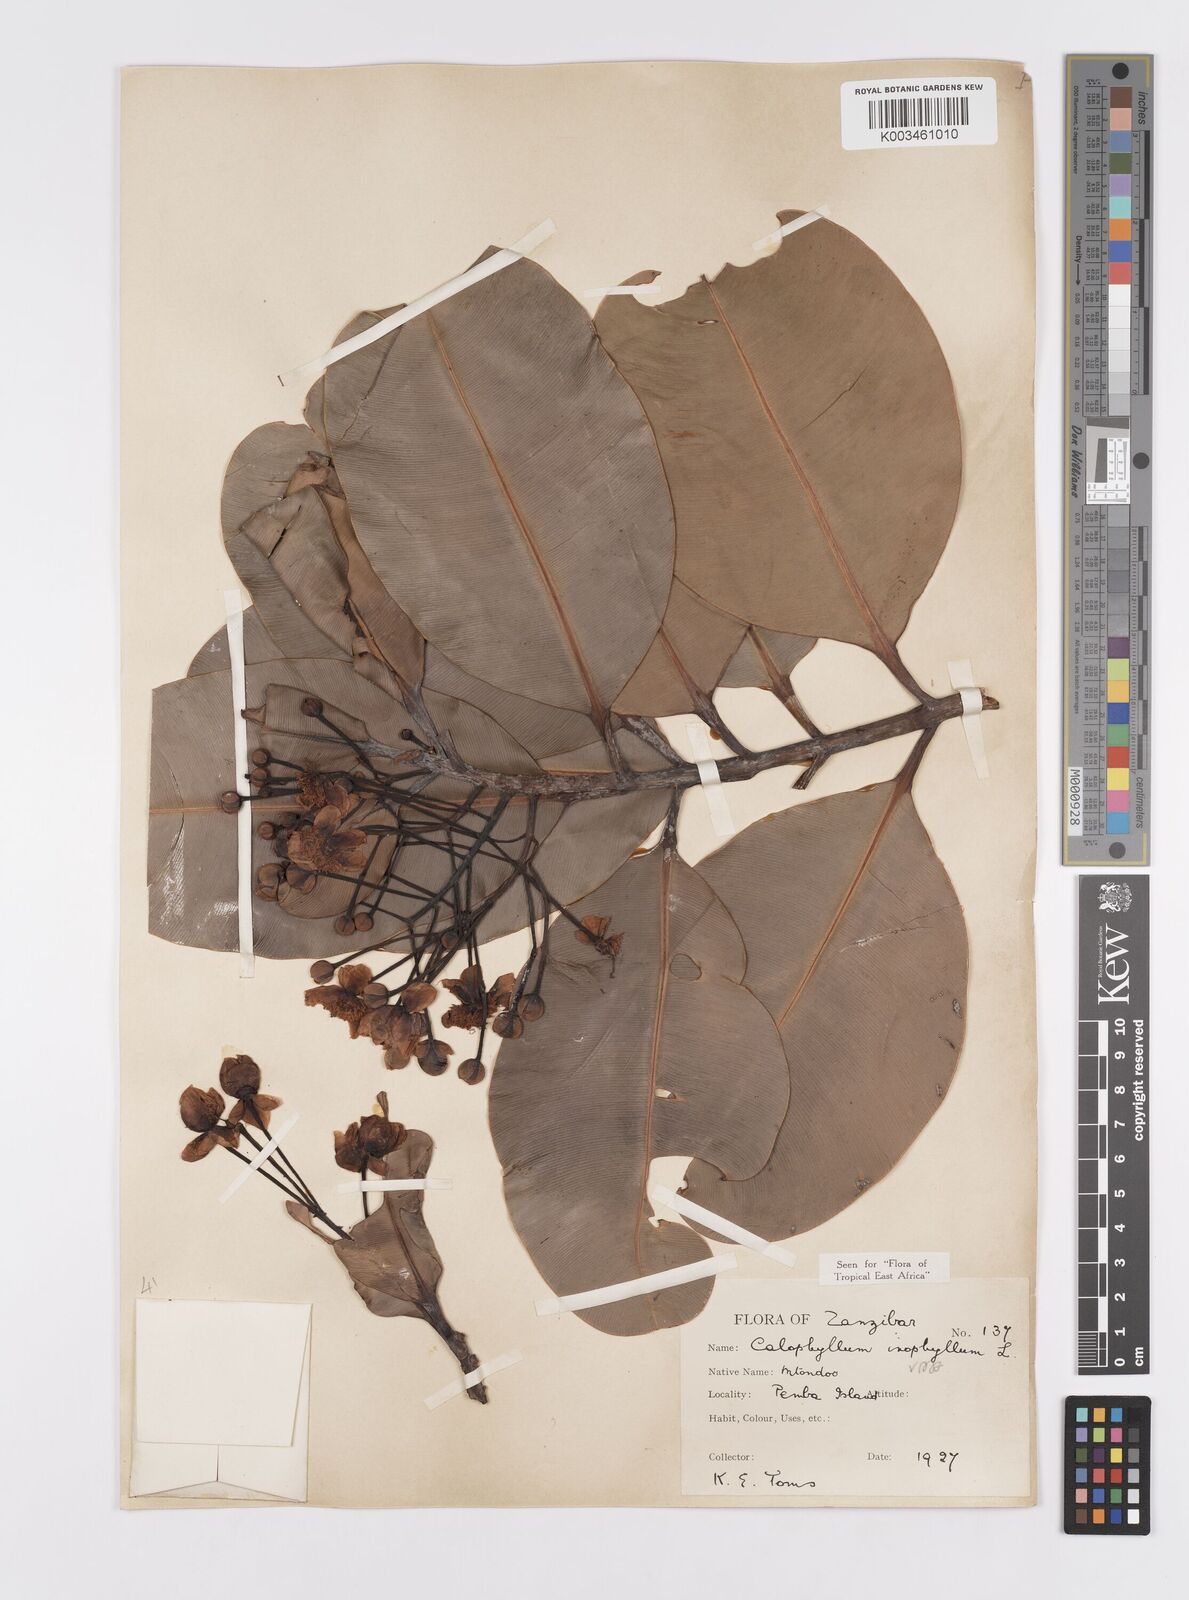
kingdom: Plantae
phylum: Tracheophyta
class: Magnoliopsida
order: Malpighiales
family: Calophyllaceae
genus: Calophyllum
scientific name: Calophyllum inophyllum
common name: Alexandrian laurel
